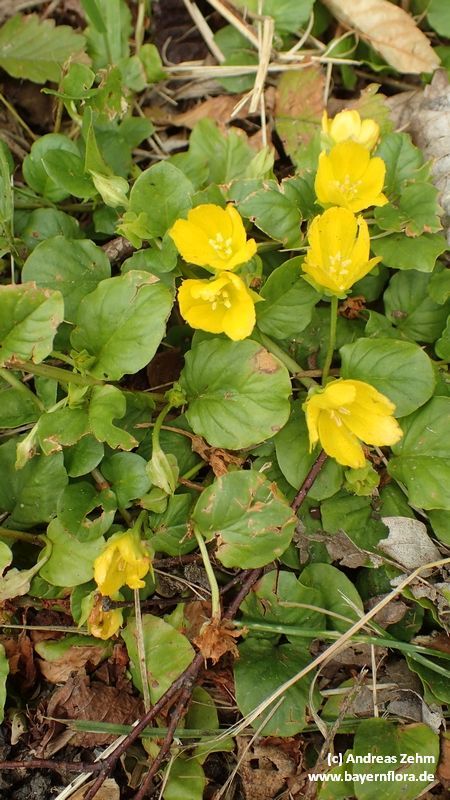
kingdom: Plantae
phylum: Tracheophyta
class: Magnoliopsida
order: Ericales
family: Primulaceae
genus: Lysimachia
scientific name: Lysimachia nummularia
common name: Moneywort
